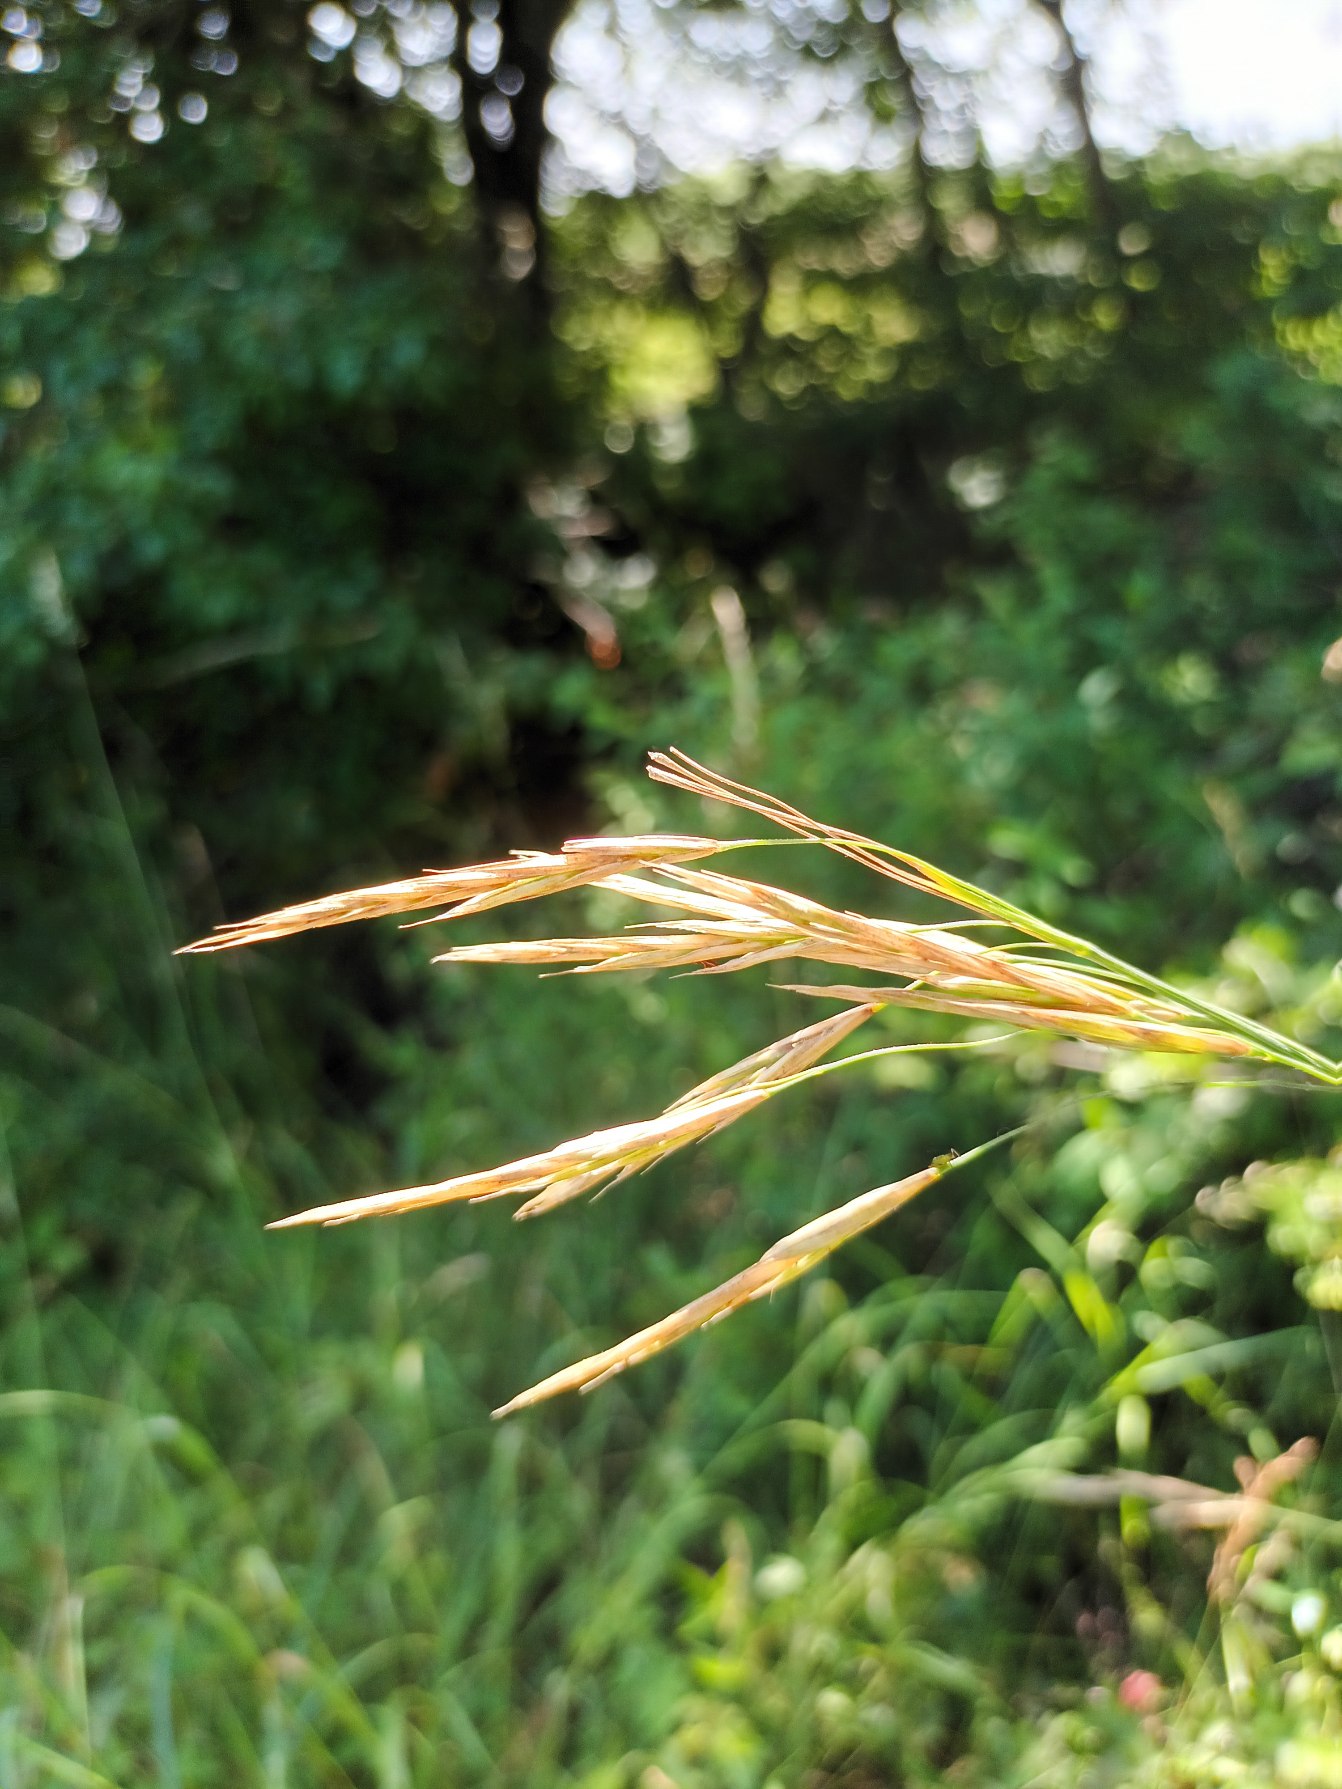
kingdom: Plantae
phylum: Tracheophyta
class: Liliopsida
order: Poales
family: Poaceae
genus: Bromus
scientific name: Bromus erectus
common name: Opret hejre
